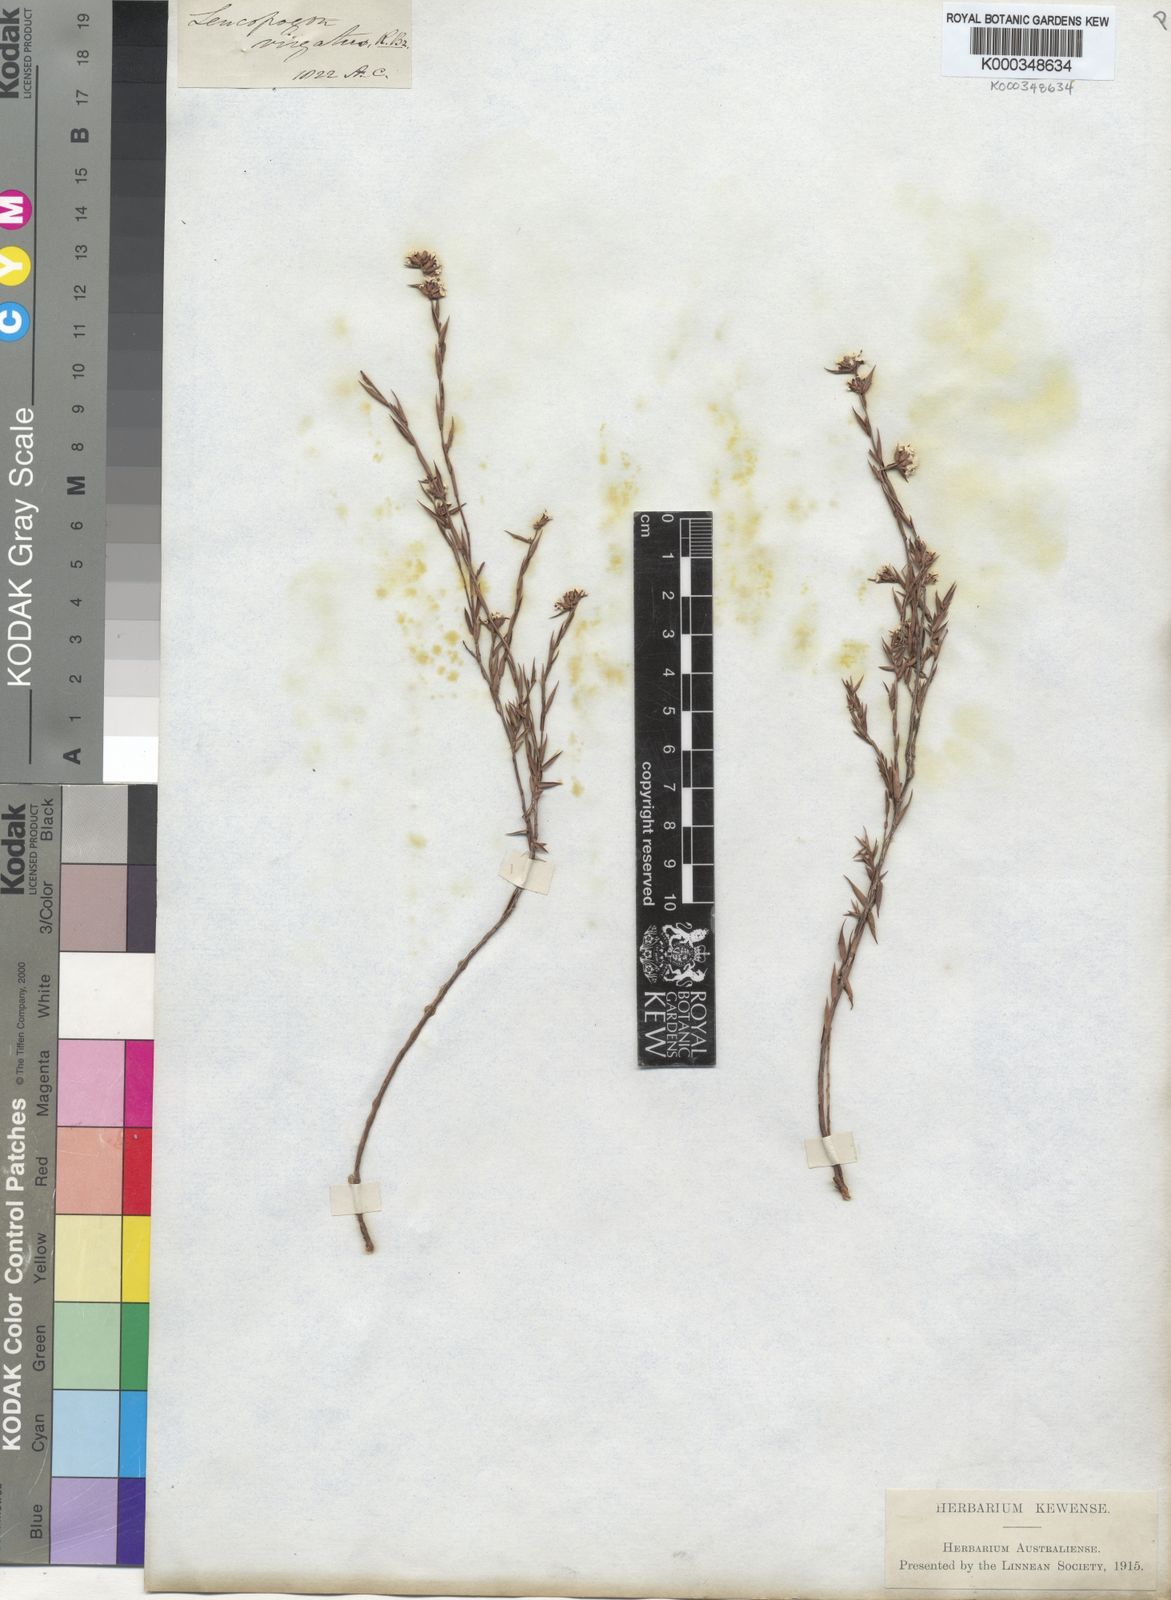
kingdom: Plantae
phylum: Tracheophyta
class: Magnoliopsida
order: Ericales
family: Ericaceae
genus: Leucopogon
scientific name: Leucopogon virgatus
